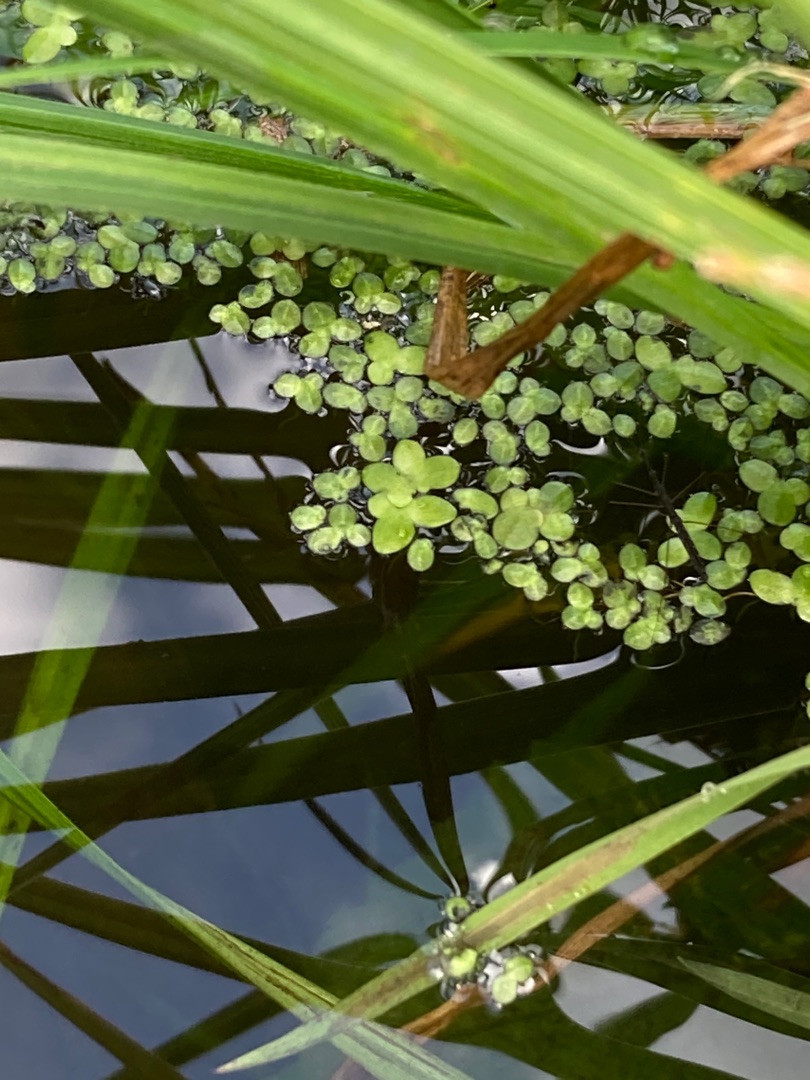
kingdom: Plantae
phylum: Tracheophyta
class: Liliopsida
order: Alismatales
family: Araceae
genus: Lemna
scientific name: Lemna minor
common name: Liden andemad
